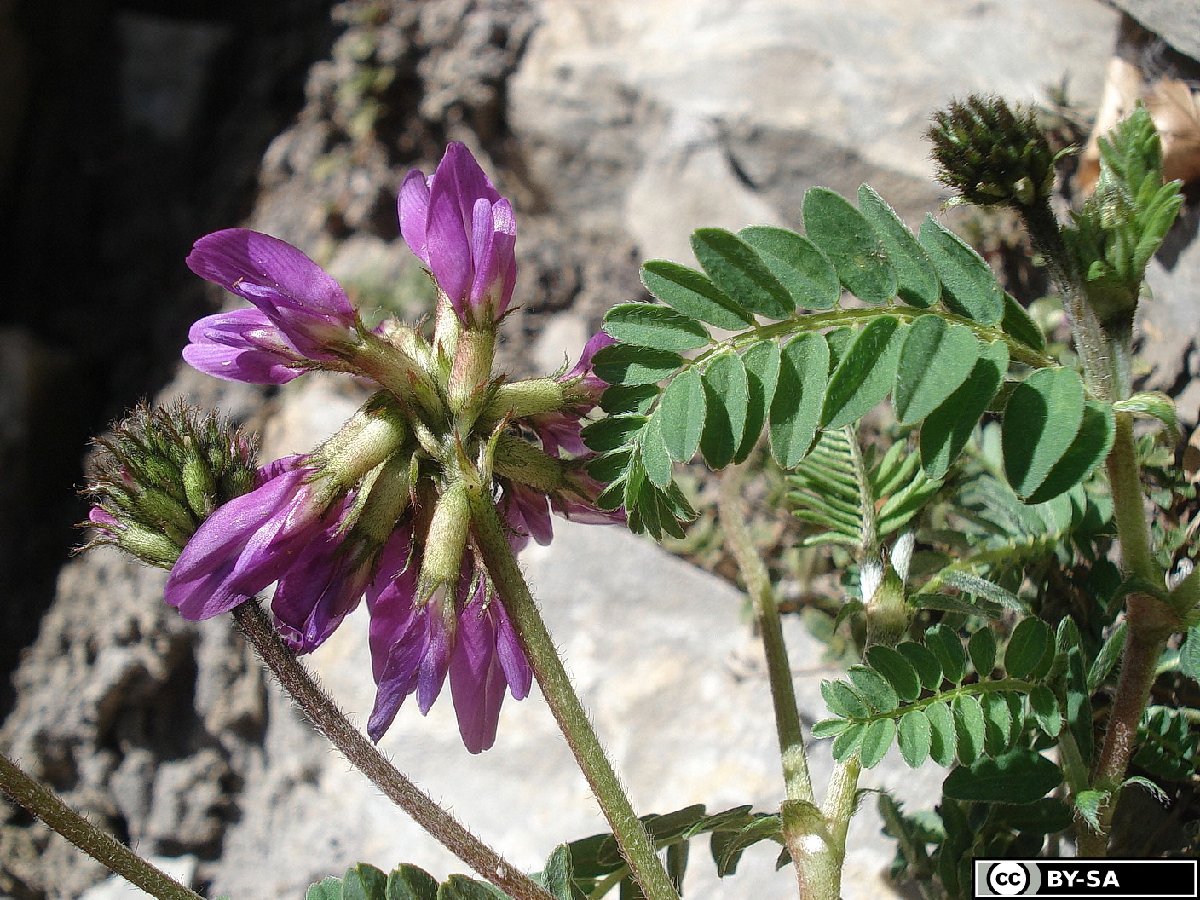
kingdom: Plantae
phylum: Tracheophyta
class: Magnoliopsida
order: Fabales
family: Fabaceae
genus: Astragalus
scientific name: Astragalus hypoglottis
